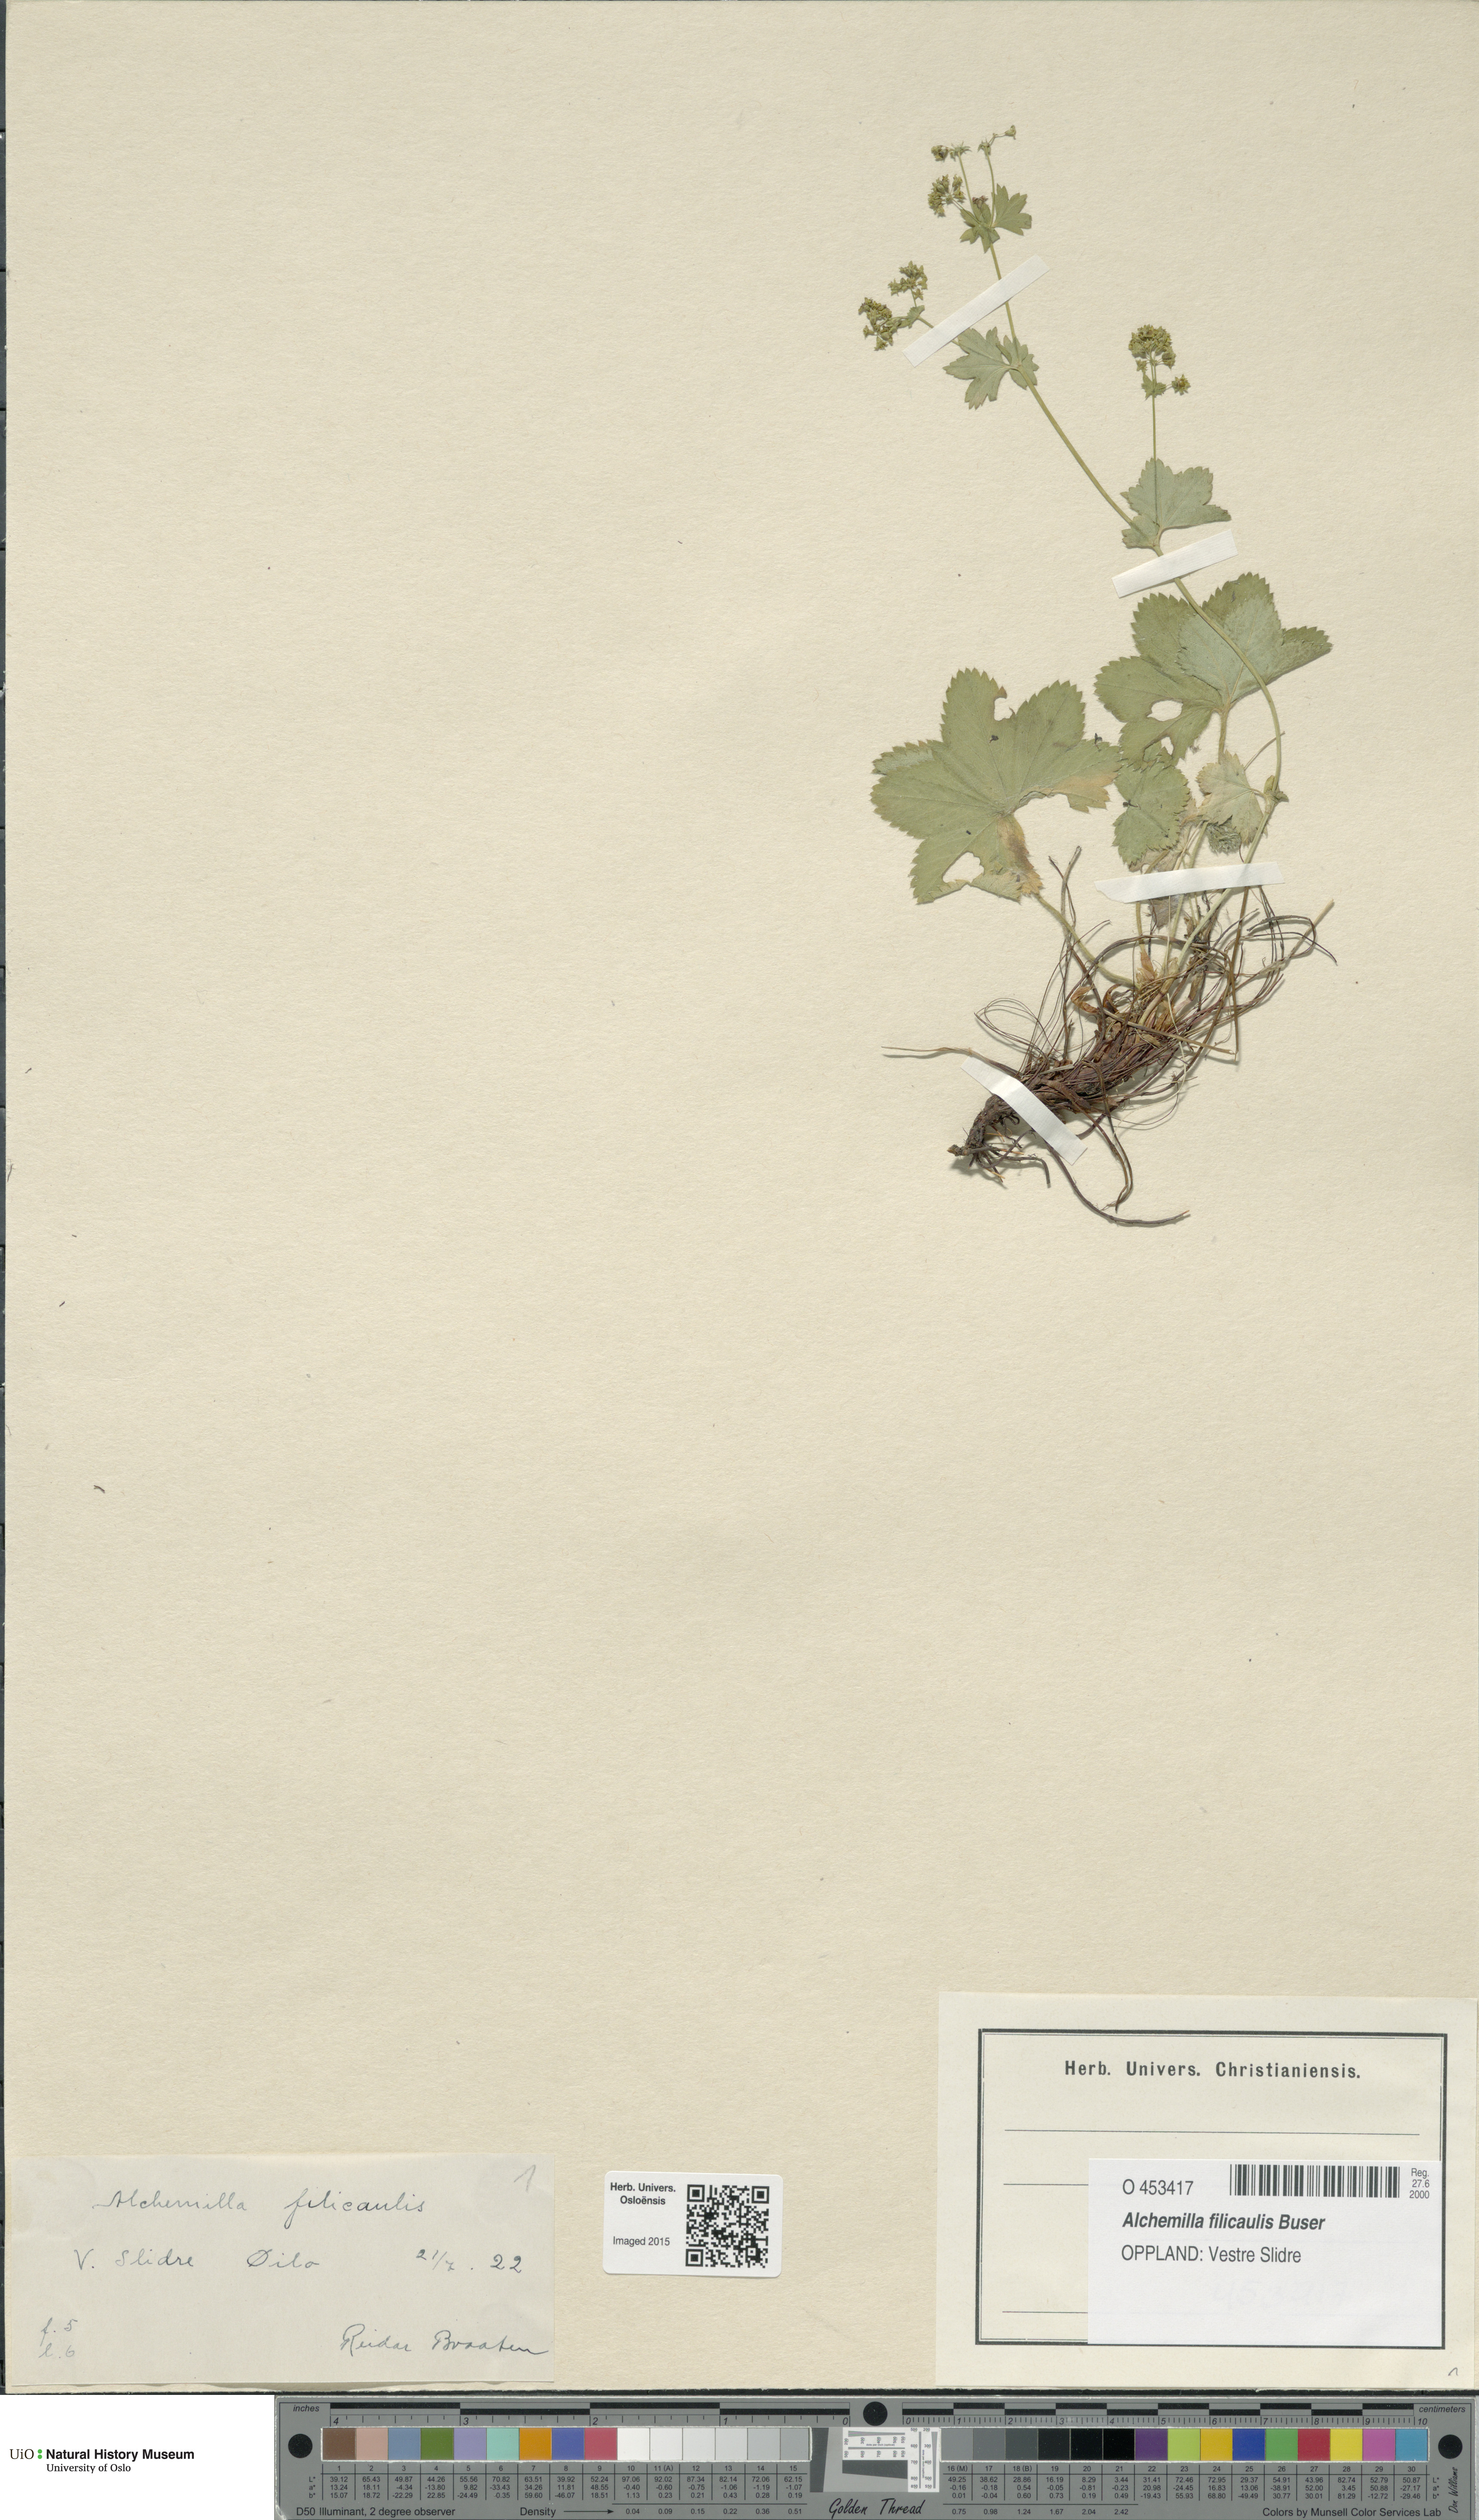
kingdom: Plantae
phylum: Tracheophyta
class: Magnoliopsida
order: Rosales
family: Rosaceae
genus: Alchemilla
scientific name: Alchemilla filicaulis
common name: Hairy lady's-mantle
